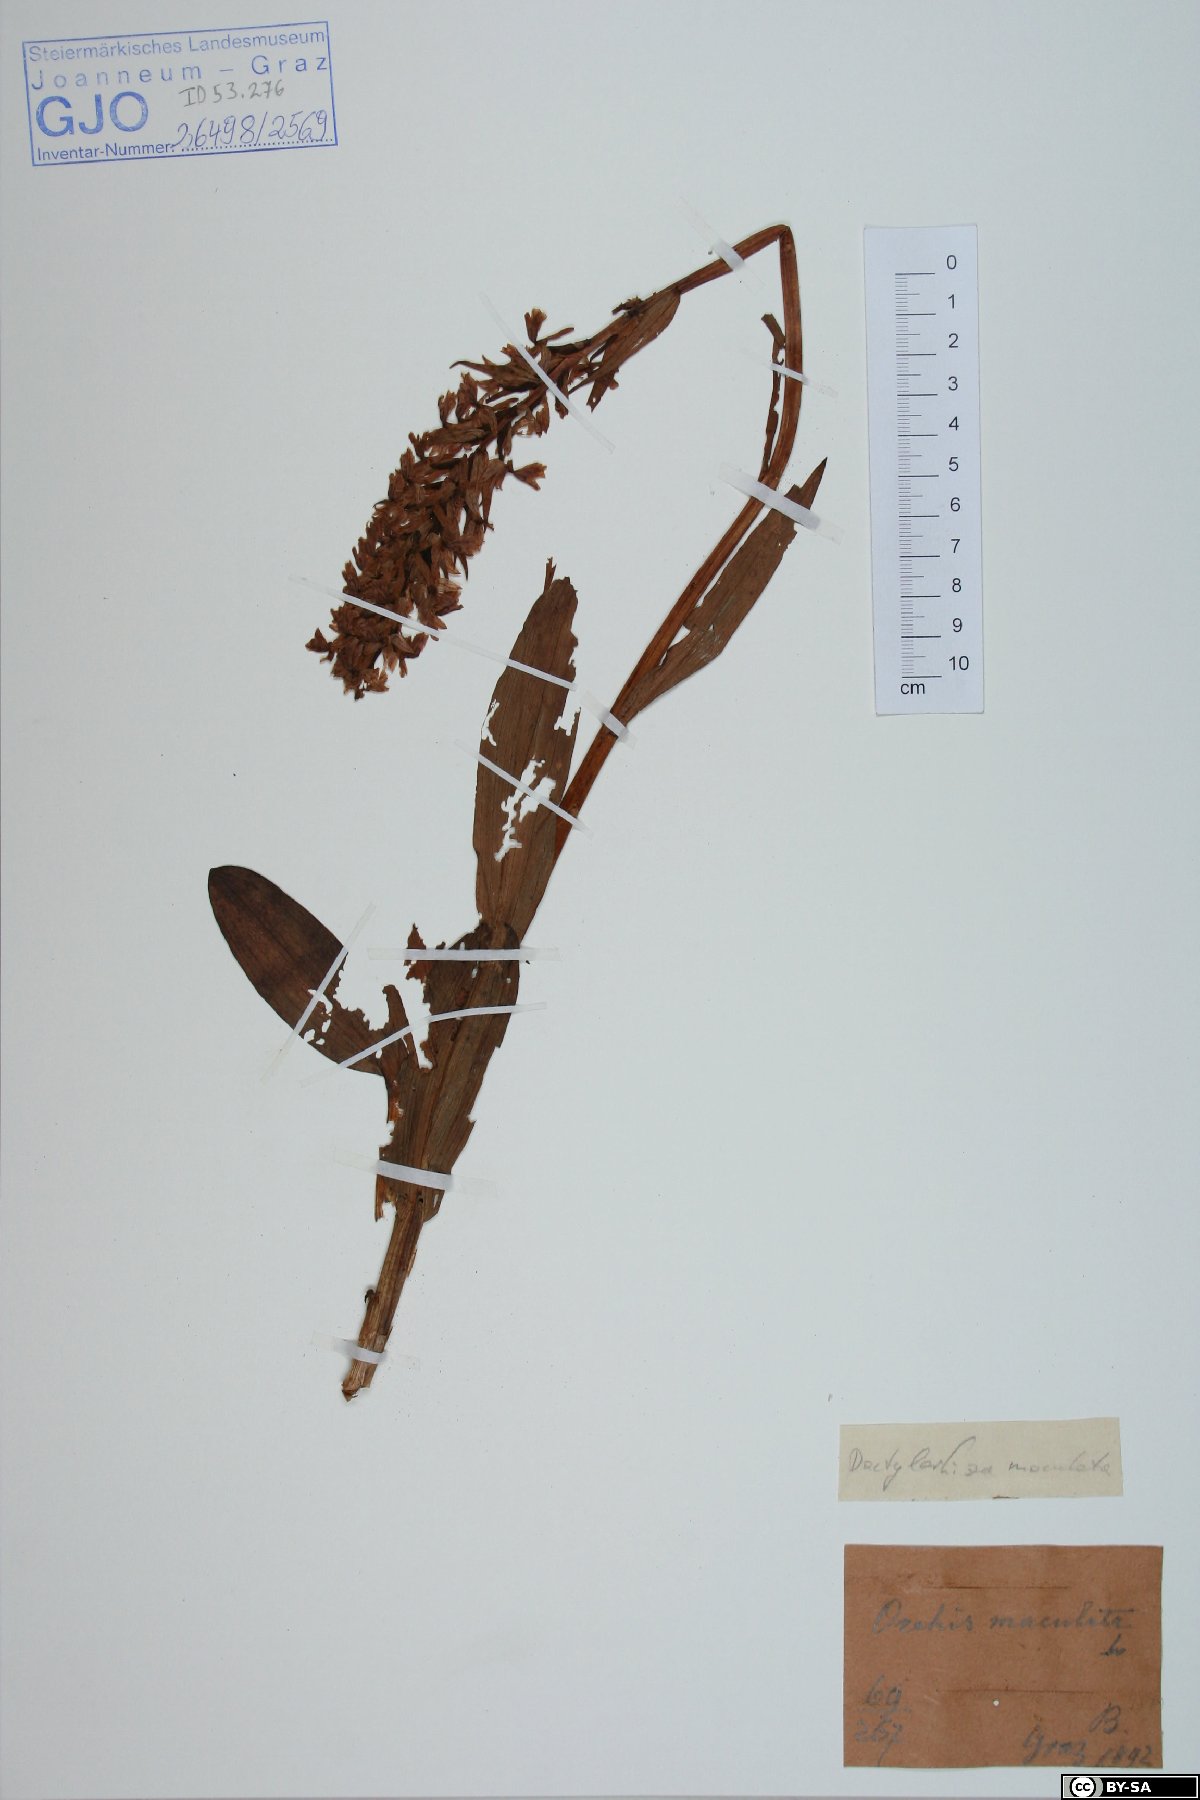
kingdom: Plantae
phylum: Tracheophyta
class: Liliopsida
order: Asparagales
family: Orchidaceae
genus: Dactylorhiza
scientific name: Dactylorhiza maculata
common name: Heath spotted-orchid
